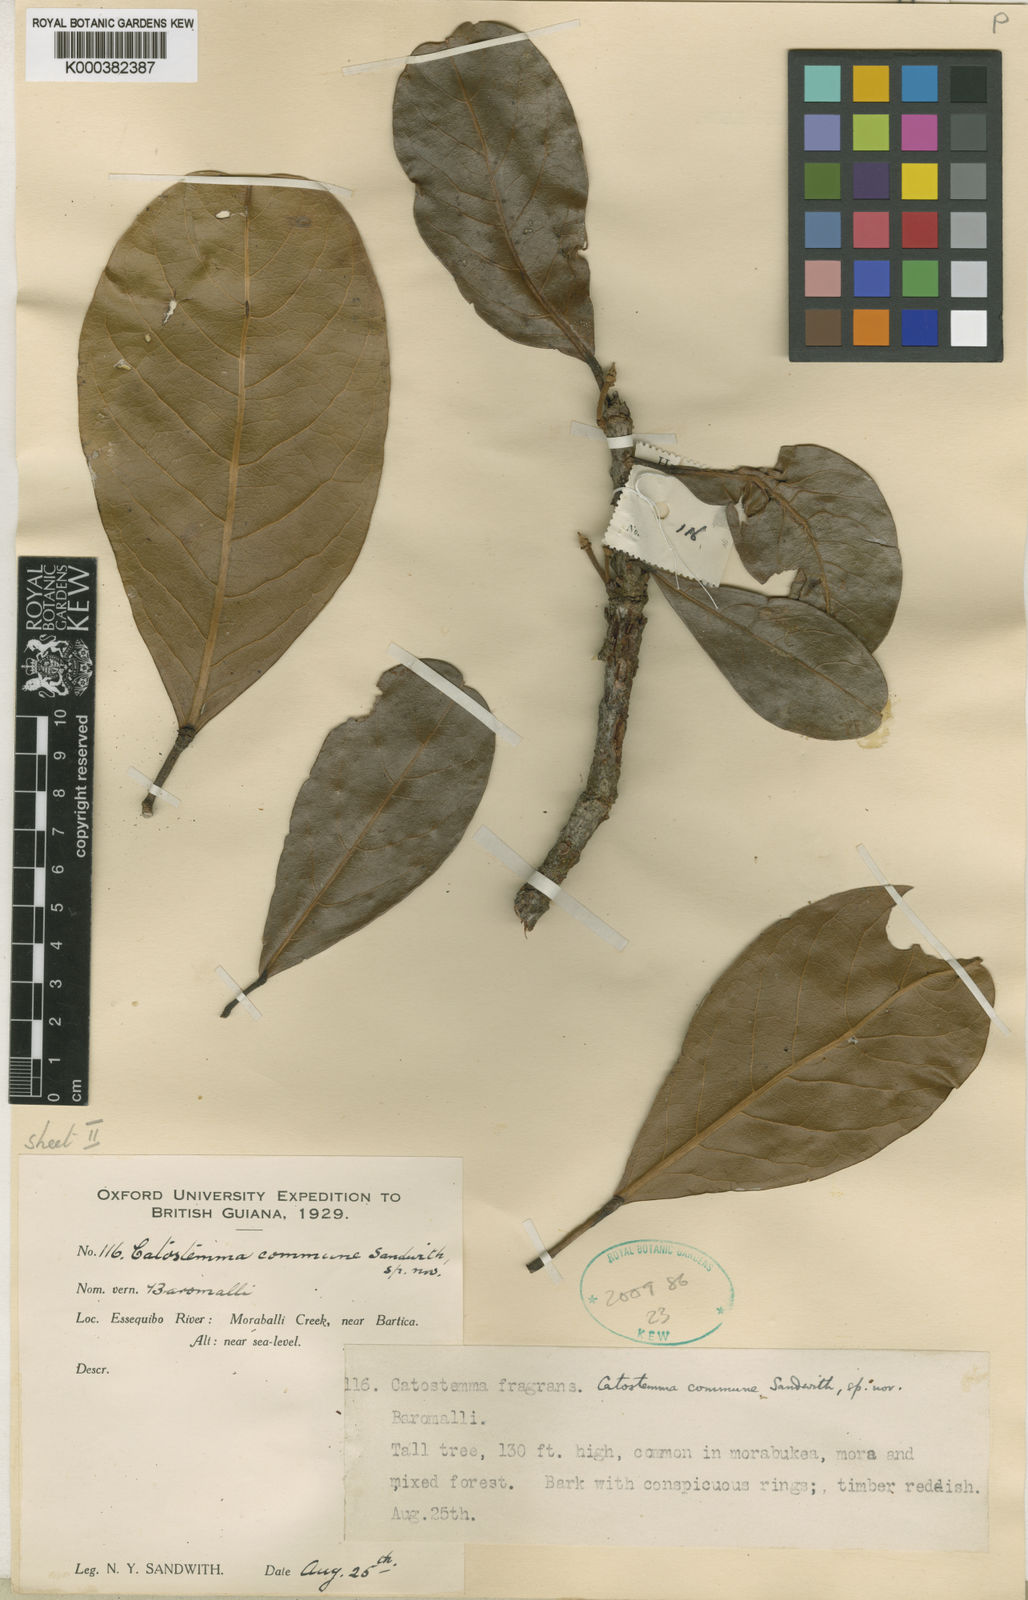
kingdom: Plantae
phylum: Tracheophyta
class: Magnoliopsida
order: Malvales
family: Malvaceae
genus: Catostemma
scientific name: Catostemma commune
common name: Baromalli
